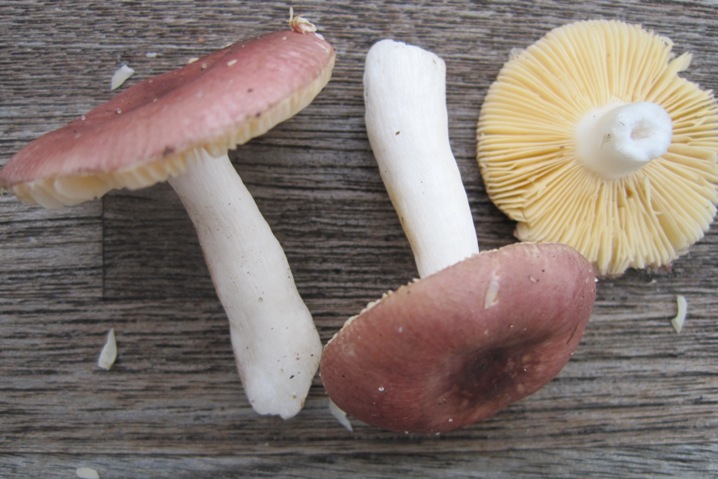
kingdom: Fungi
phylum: Basidiomycota
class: Agaricomycetes
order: Russulales
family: Russulaceae
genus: Russula
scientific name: Russula cessans
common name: fyrre-skørhat
